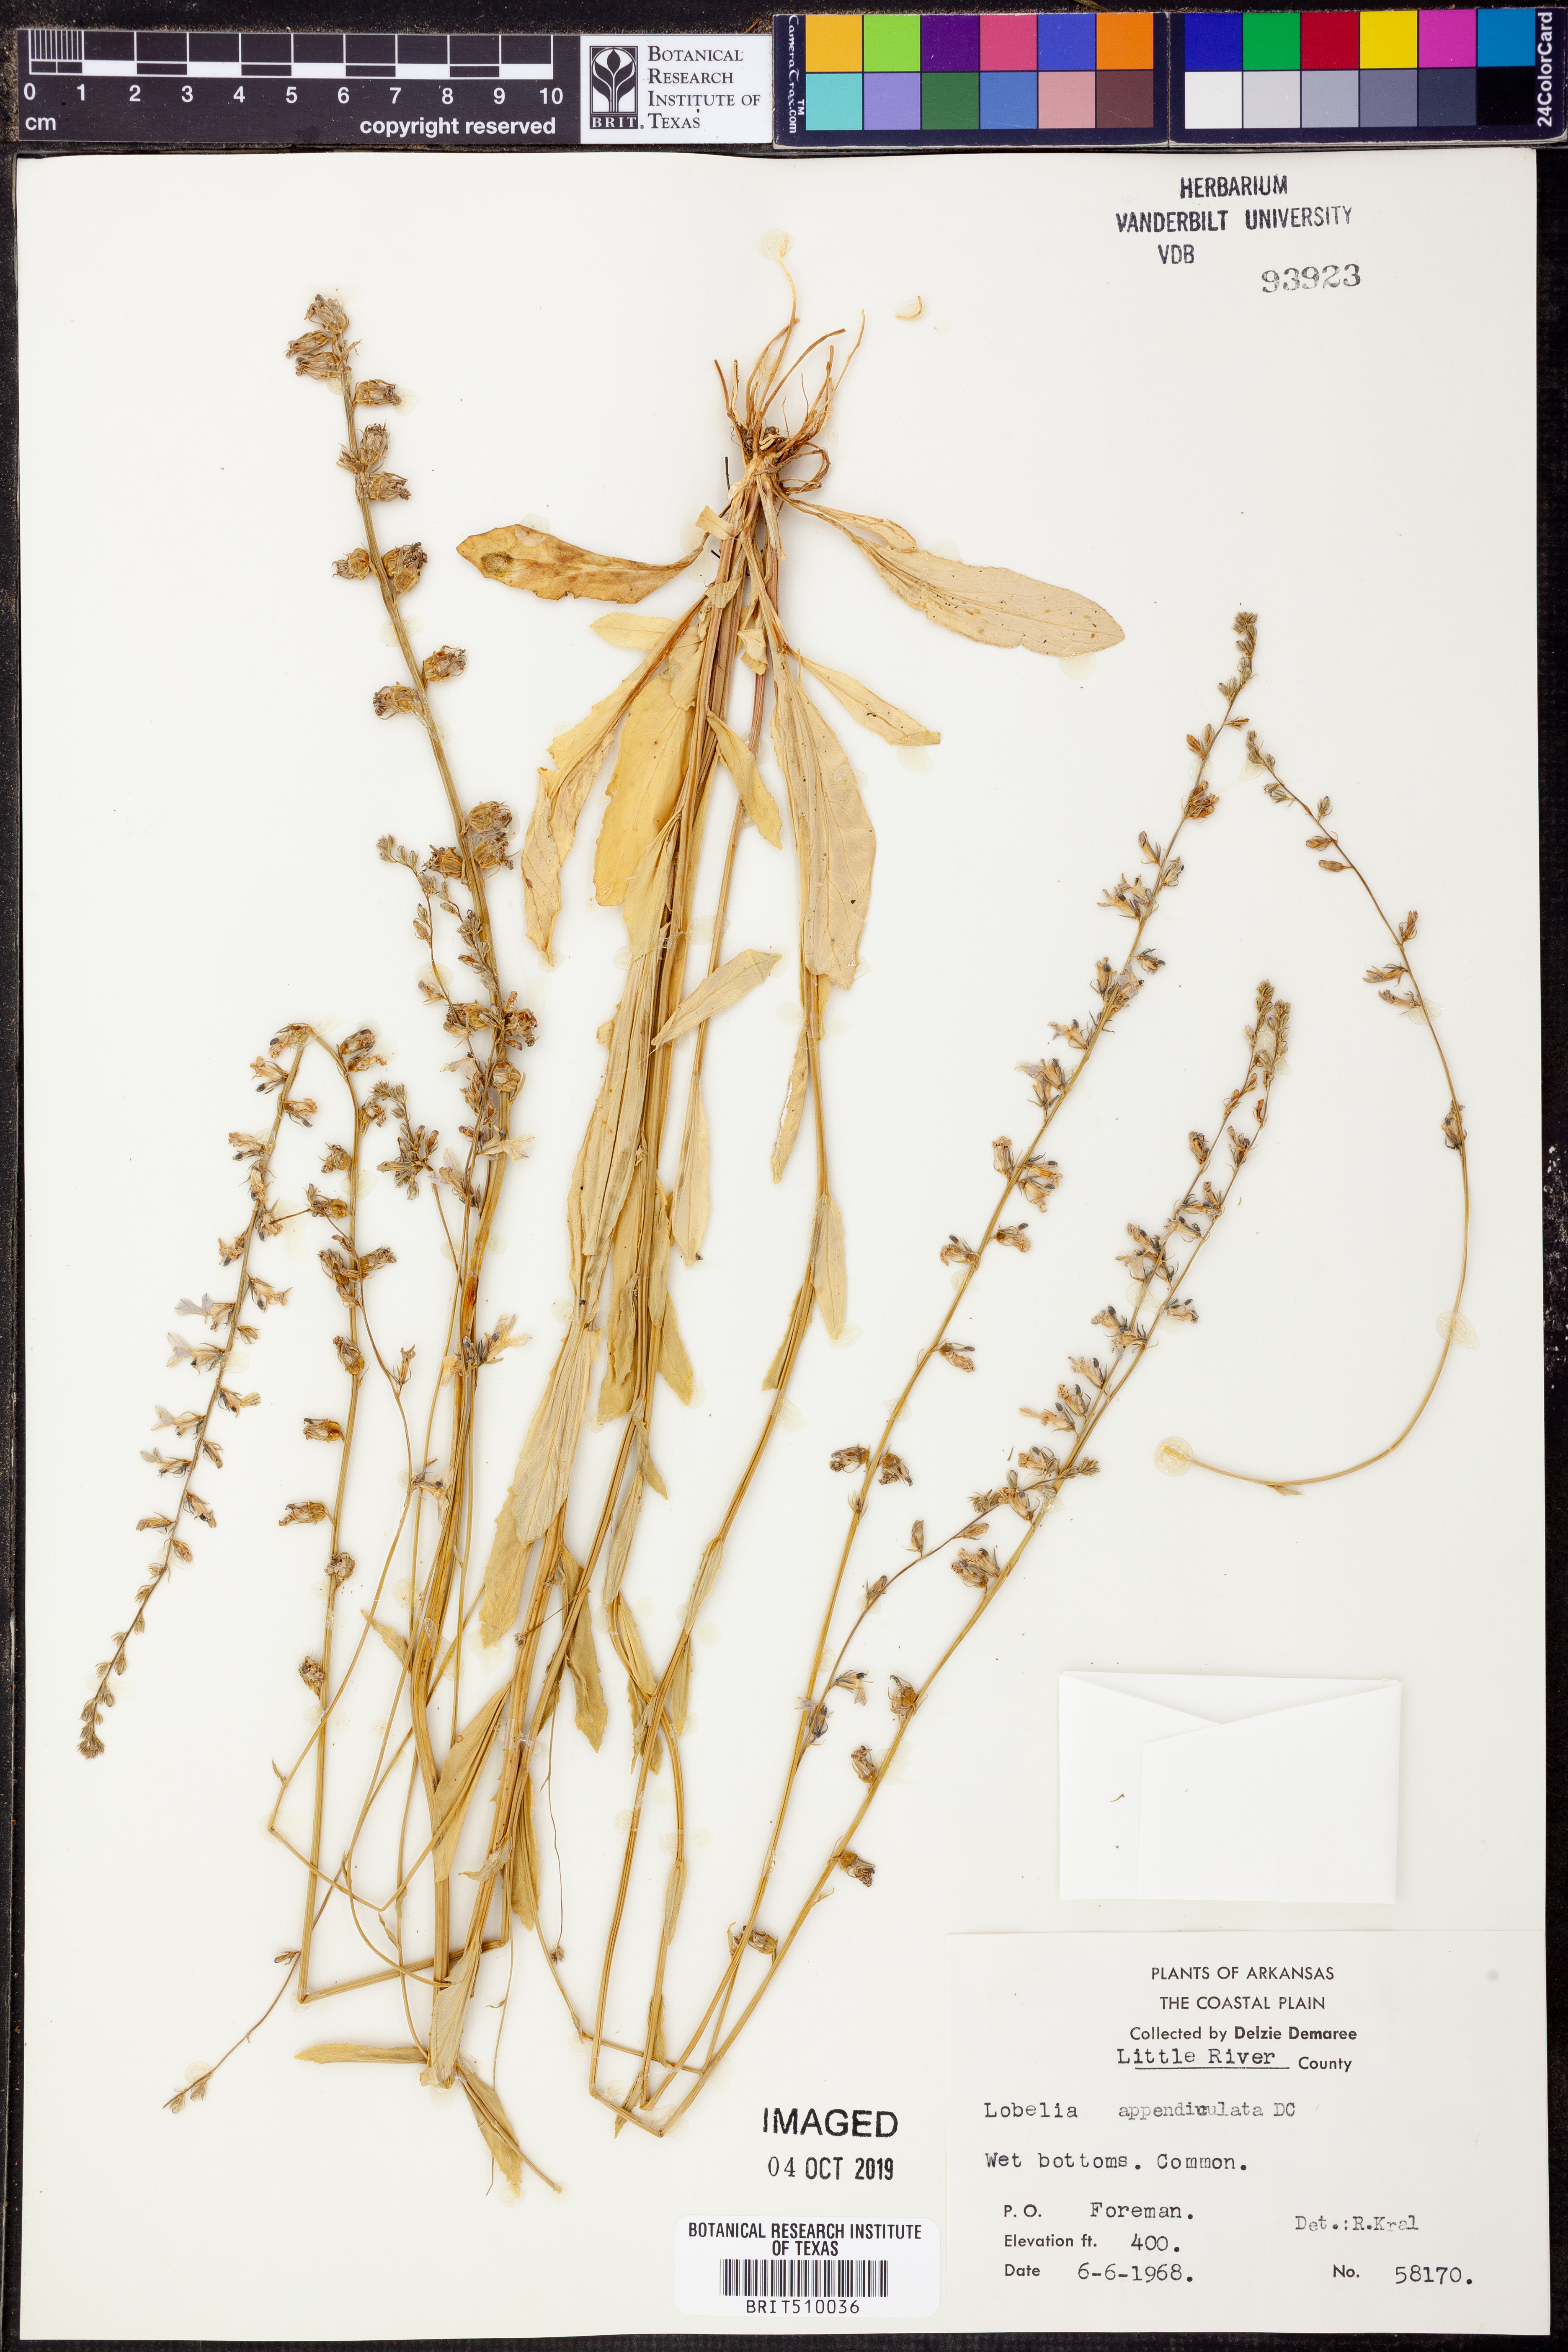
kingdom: Plantae
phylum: Tracheophyta
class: Magnoliopsida
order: Asterales
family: Campanulaceae
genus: Lobelia
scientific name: Lobelia appendiculata
